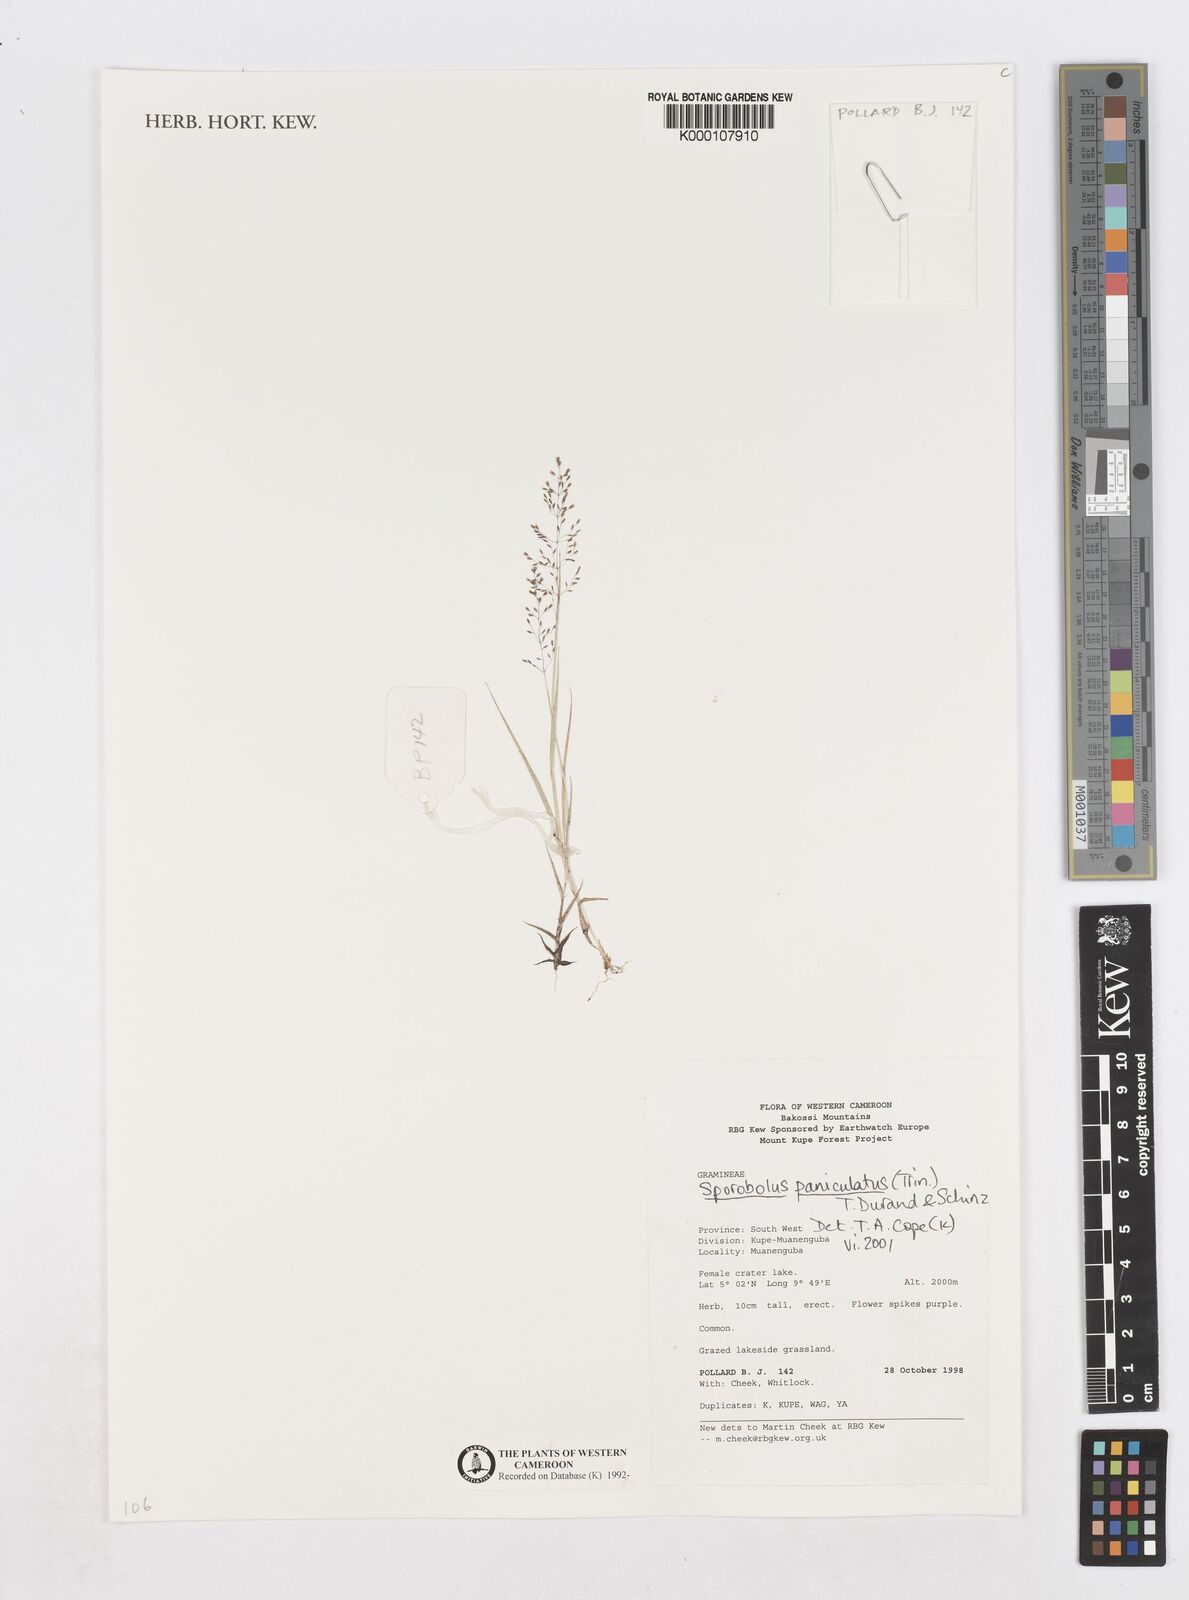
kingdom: Plantae
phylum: Tracheophyta
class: Liliopsida
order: Poales
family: Poaceae
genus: Sporobolus
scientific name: Sporobolus paniculatus
